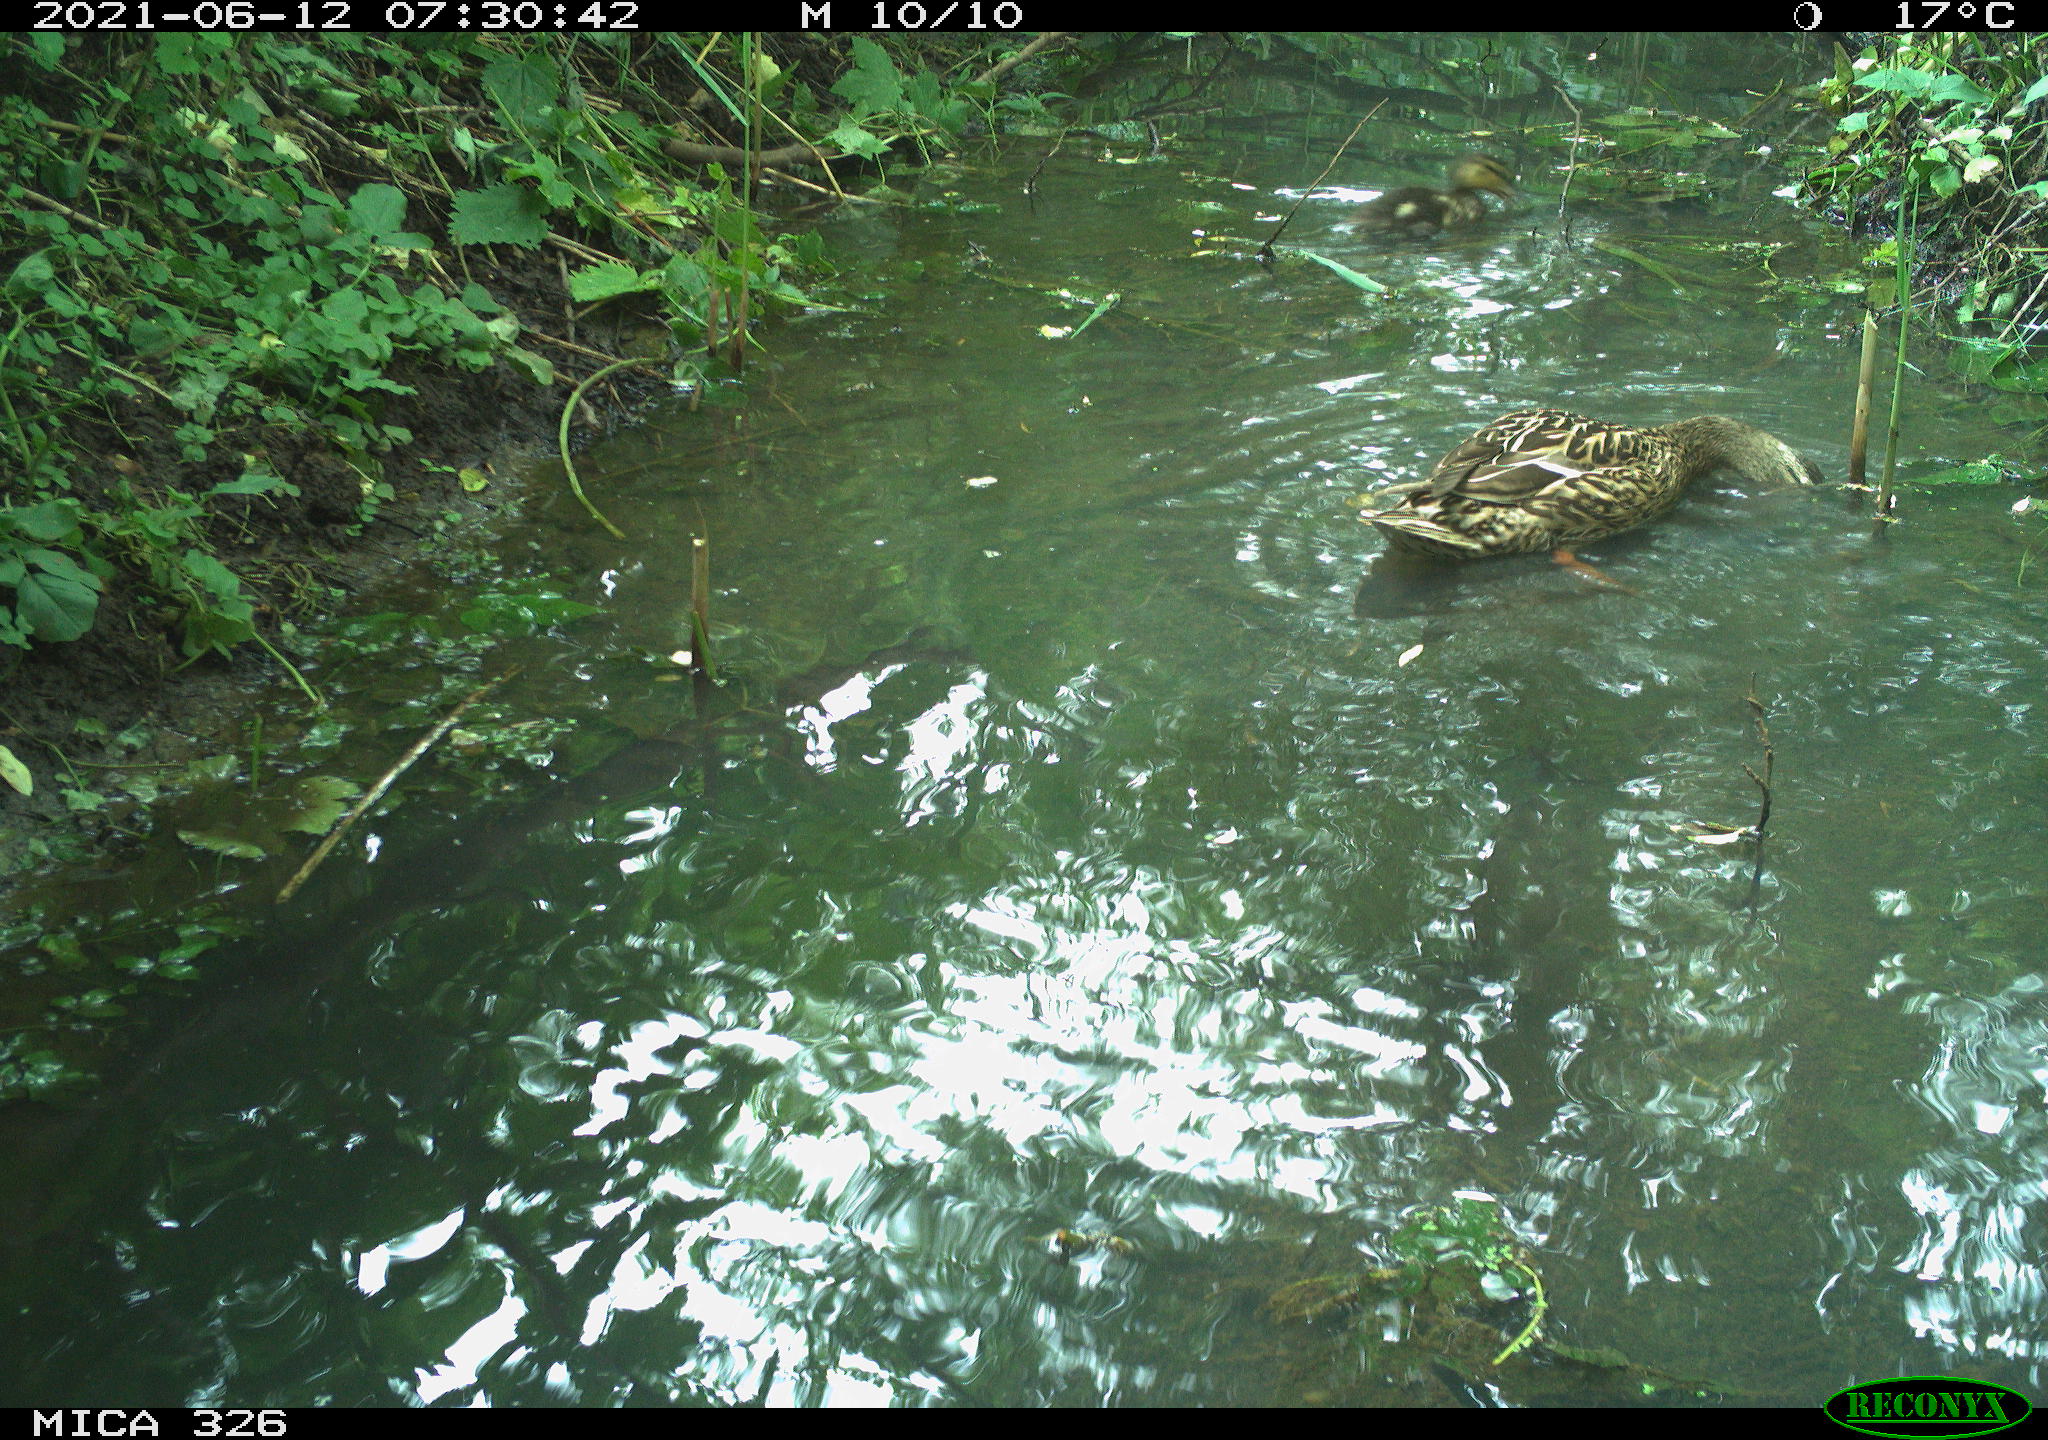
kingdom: Animalia
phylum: Chordata
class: Aves
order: Anseriformes
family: Anatidae
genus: Anas
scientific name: Anas platyrhynchos
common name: Mallard
